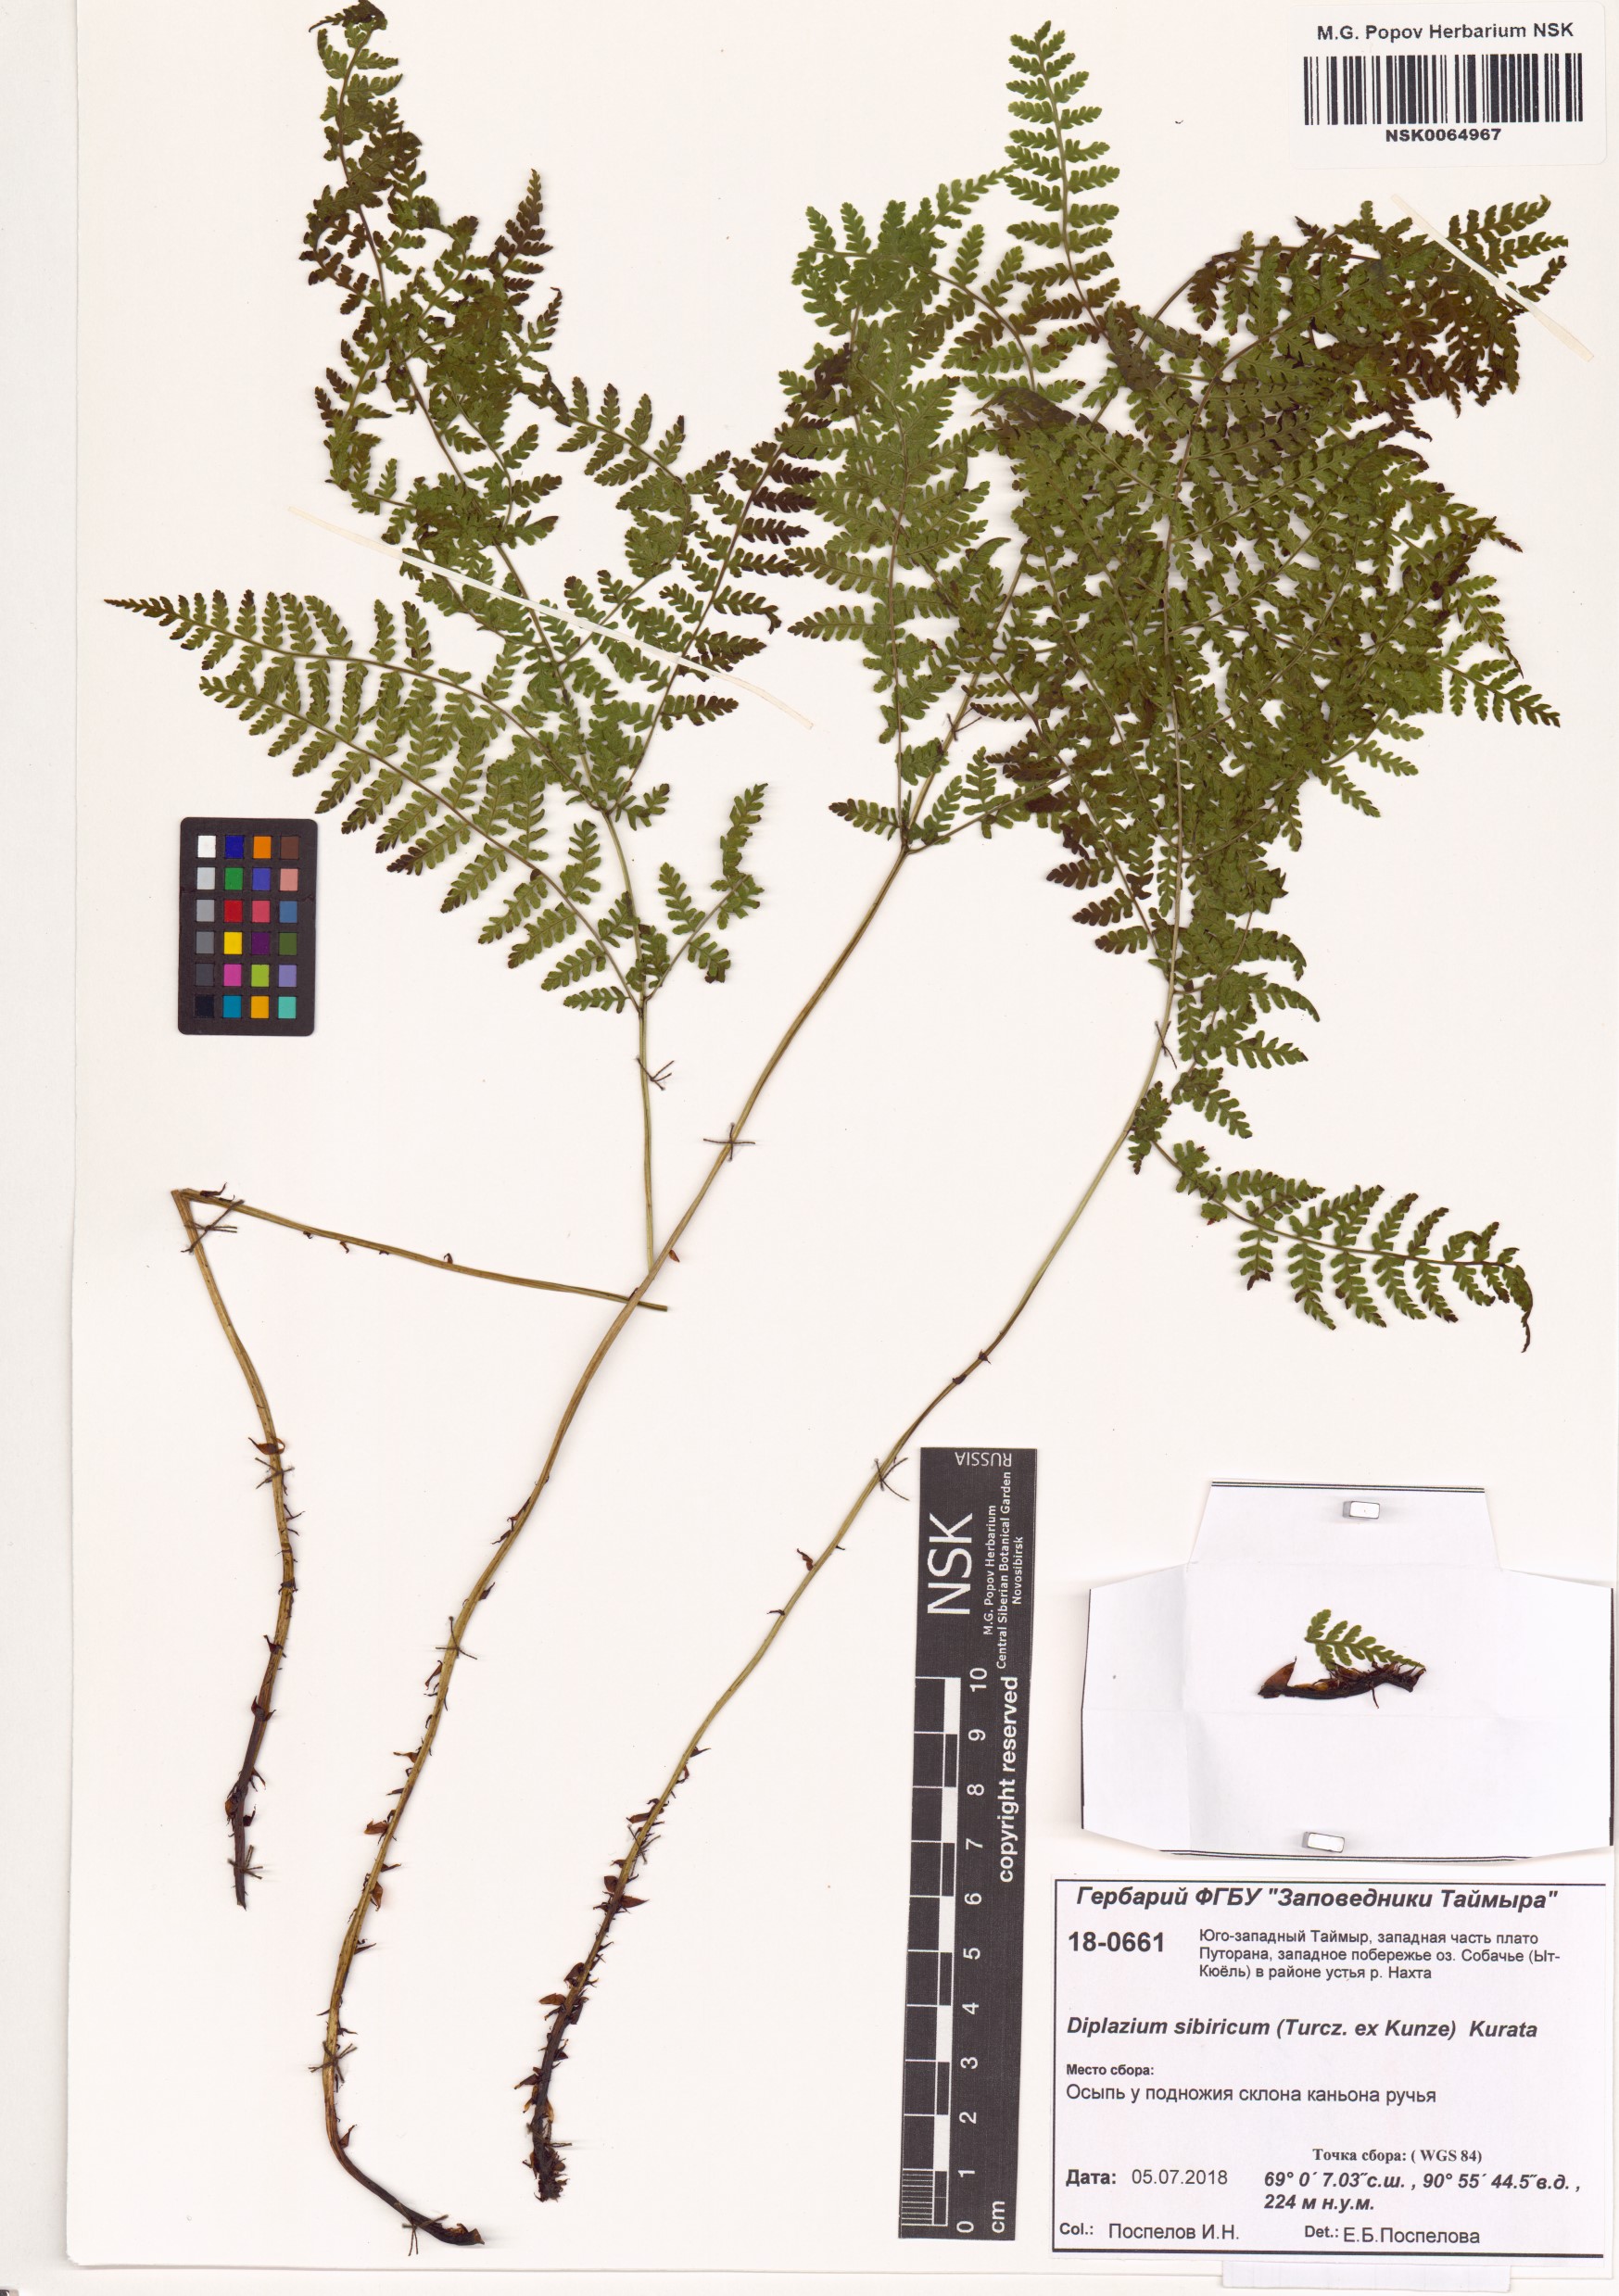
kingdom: Plantae
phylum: Tracheophyta
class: Polypodiopsida
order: Polypodiales
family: Athyriaceae
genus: Diplazium
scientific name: Diplazium sibiricum
